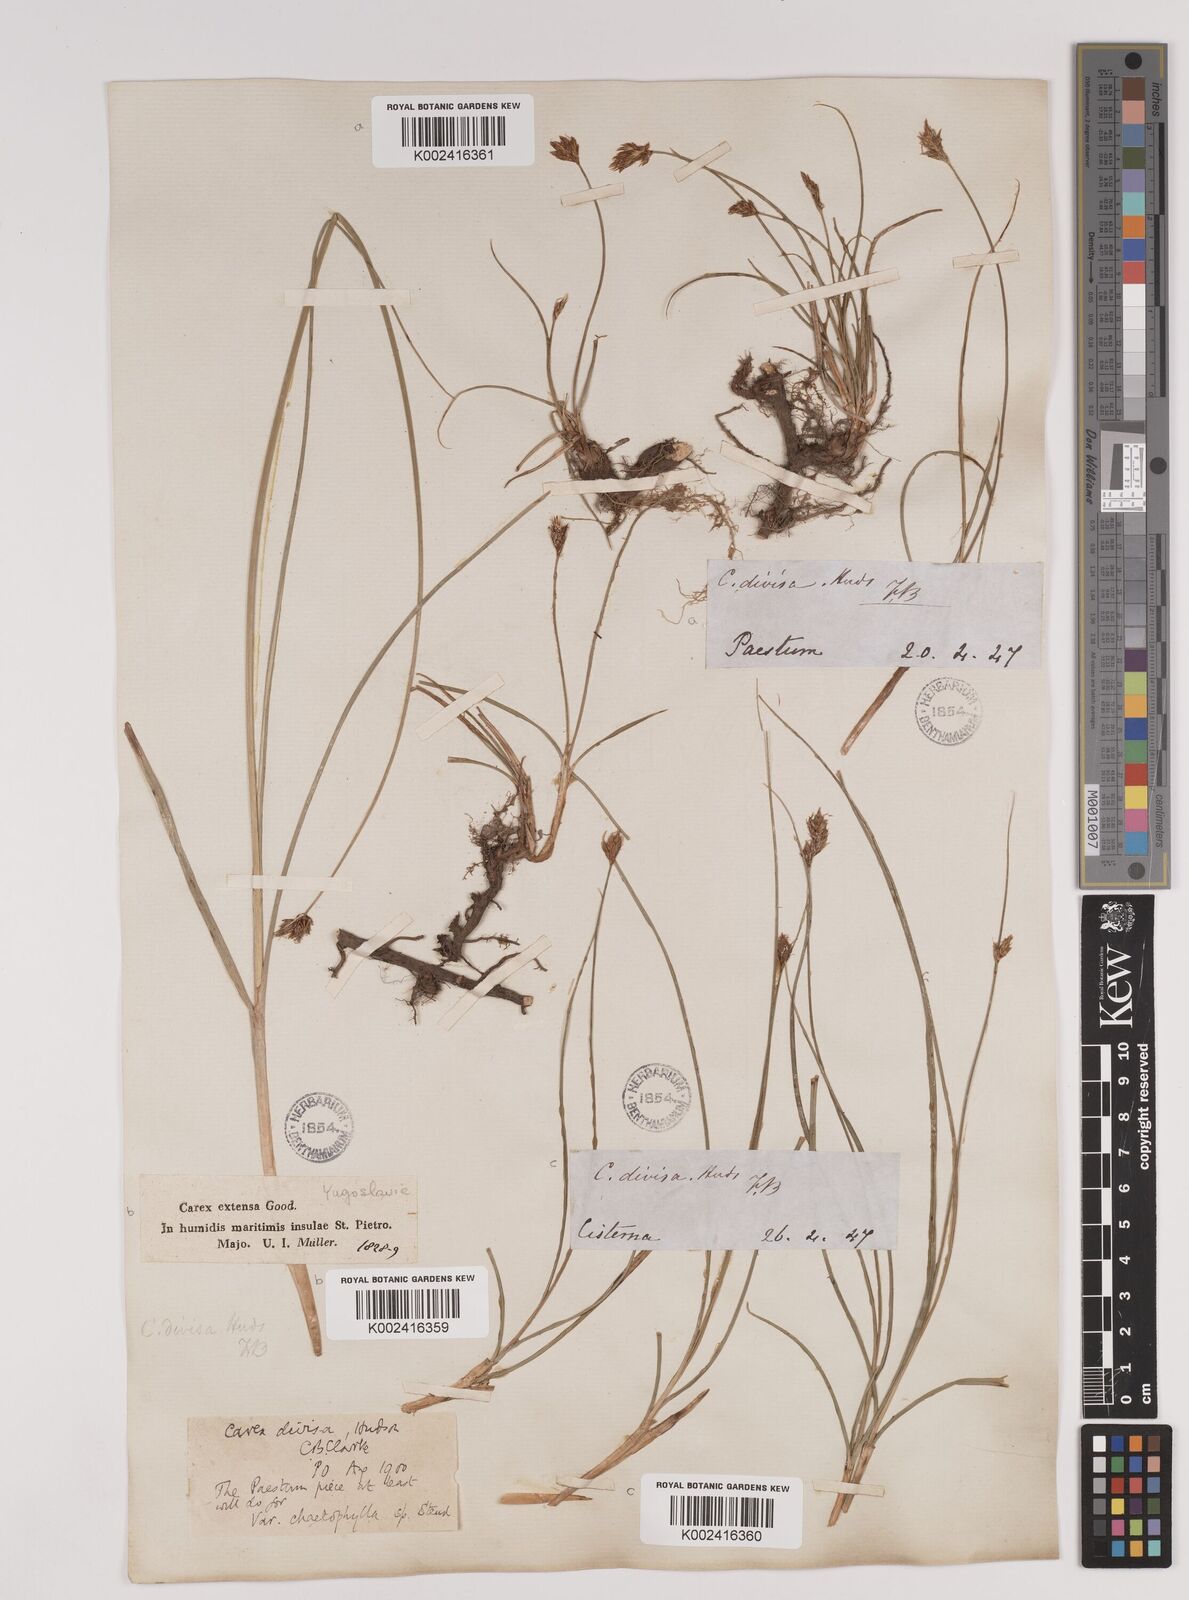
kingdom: Plantae
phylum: Tracheophyta
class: Liliopsida
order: Poales
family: Cyperaceae
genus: Carex
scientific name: Carex divisa
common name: Divided sedge
